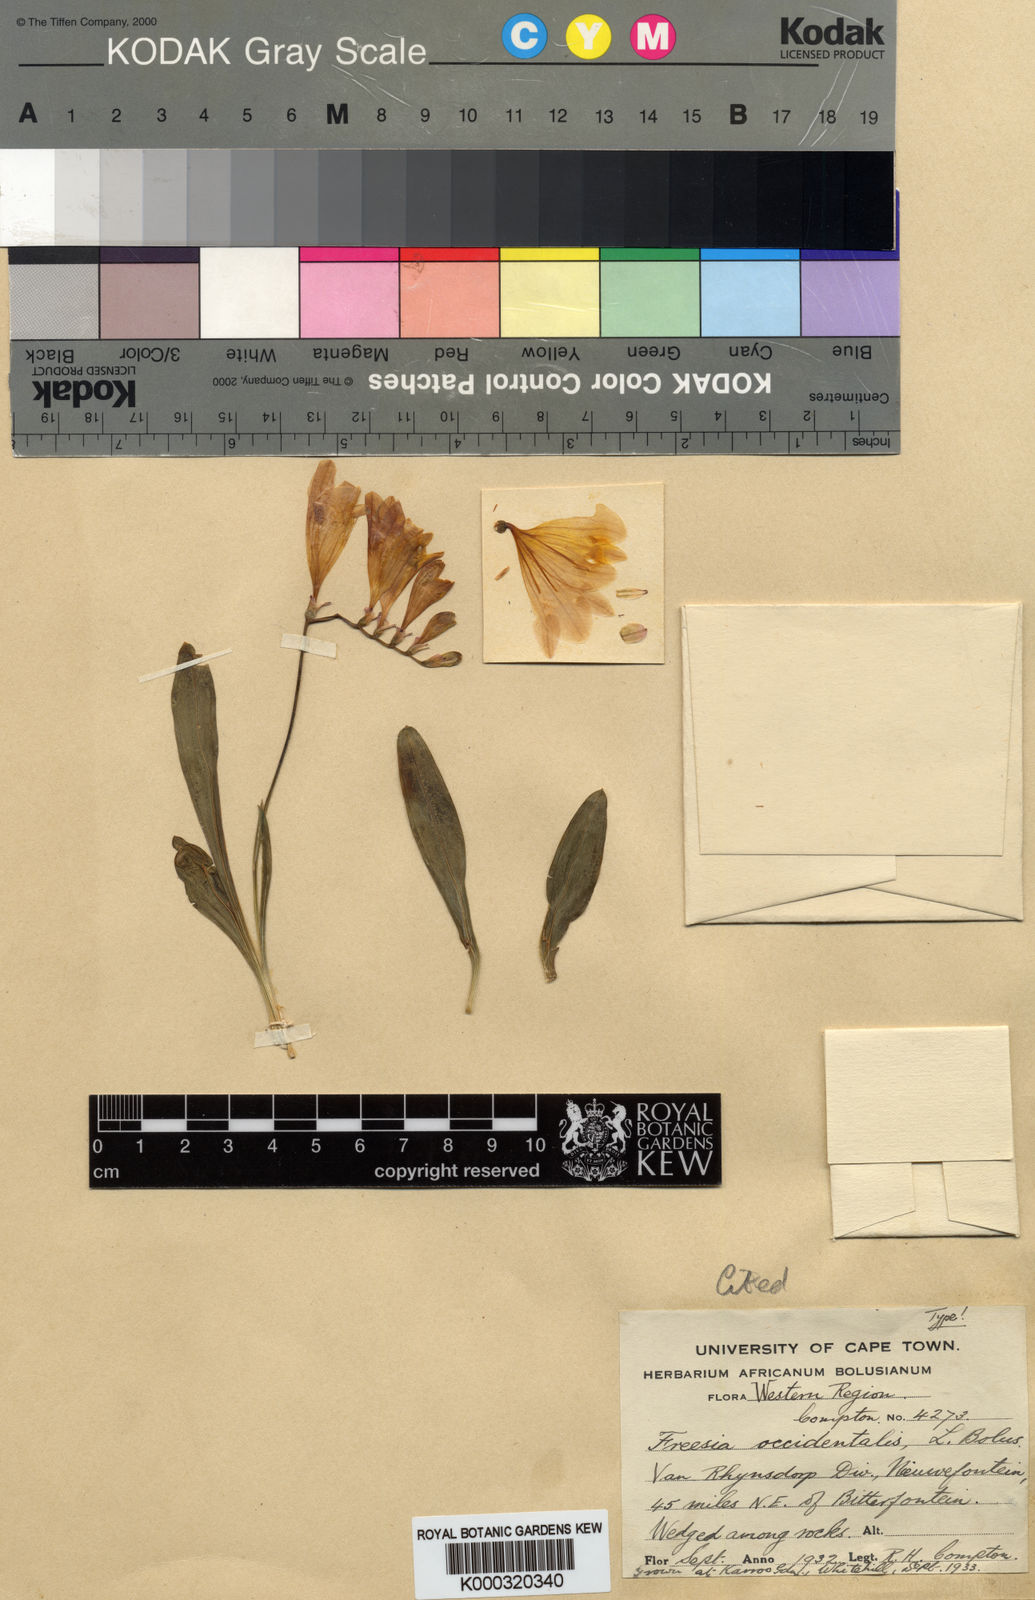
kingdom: Plantae
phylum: Tracheophyta
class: Liliopsida
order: Asparagales
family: Iridaceae
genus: Freesia
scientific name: Freesia occidentalis
